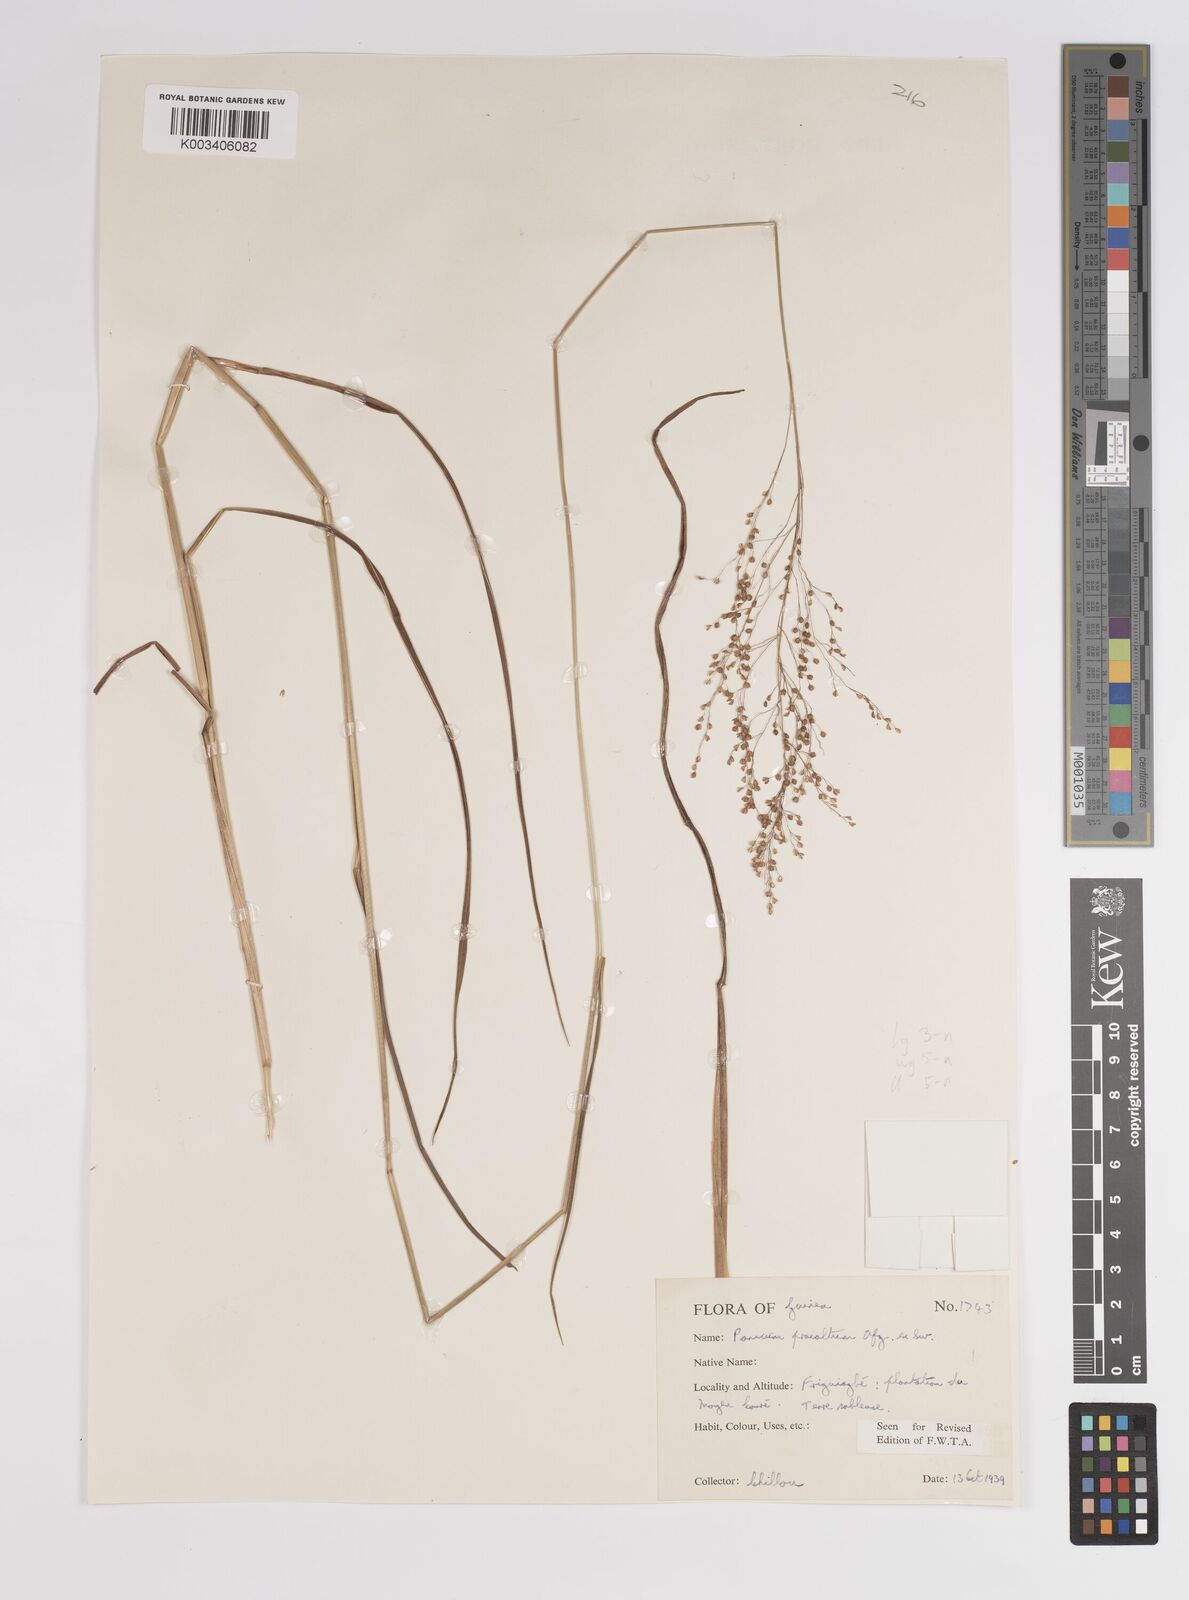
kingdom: Plantae
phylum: Tracheophyta
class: Liliopsida
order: Poales
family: Poaceae
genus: Trichanthecium
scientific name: Trichanthecium praealtum
